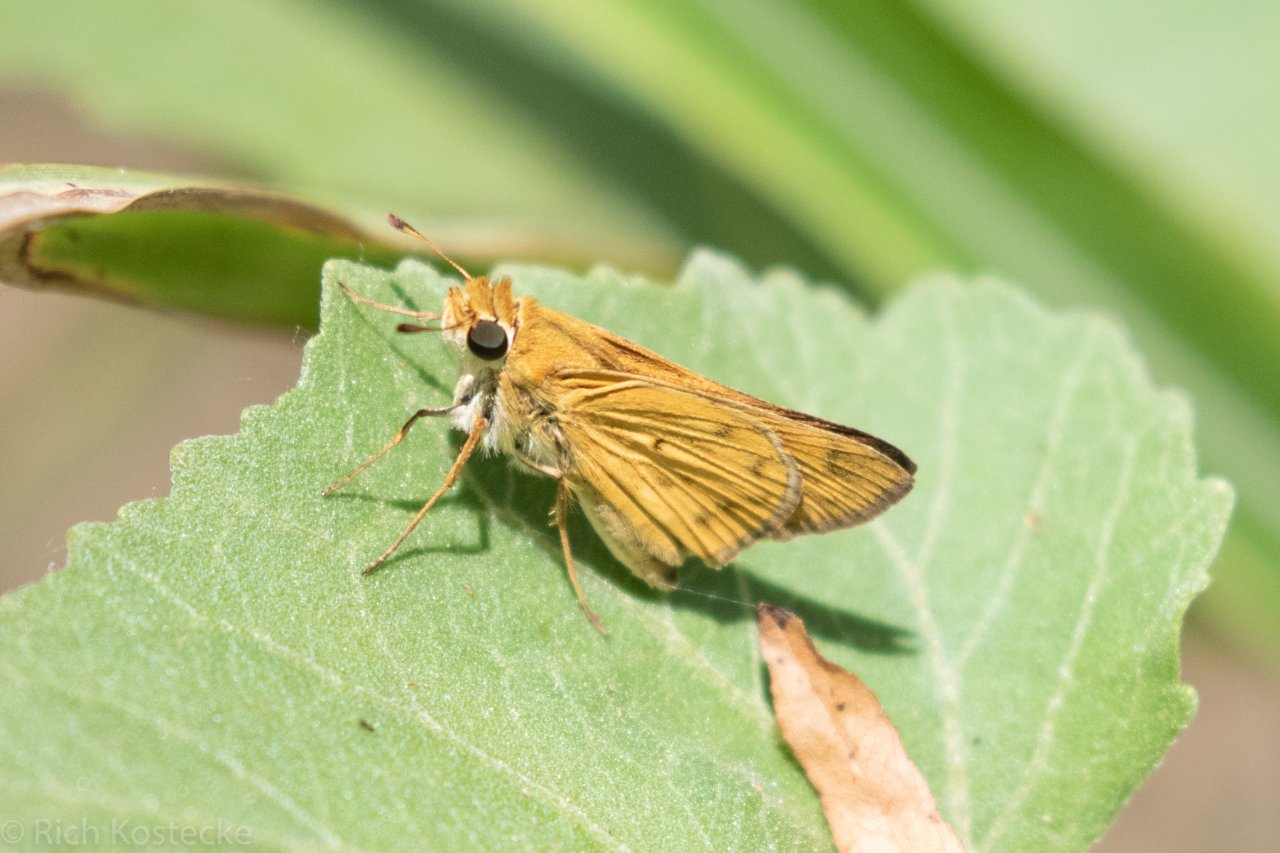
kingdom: Animalia
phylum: Arthropoda
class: Insecta
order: Lepidoptera
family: Hesperiidae
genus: Hylephila
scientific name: Hylephila phyleus
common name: Fiery Skipper
